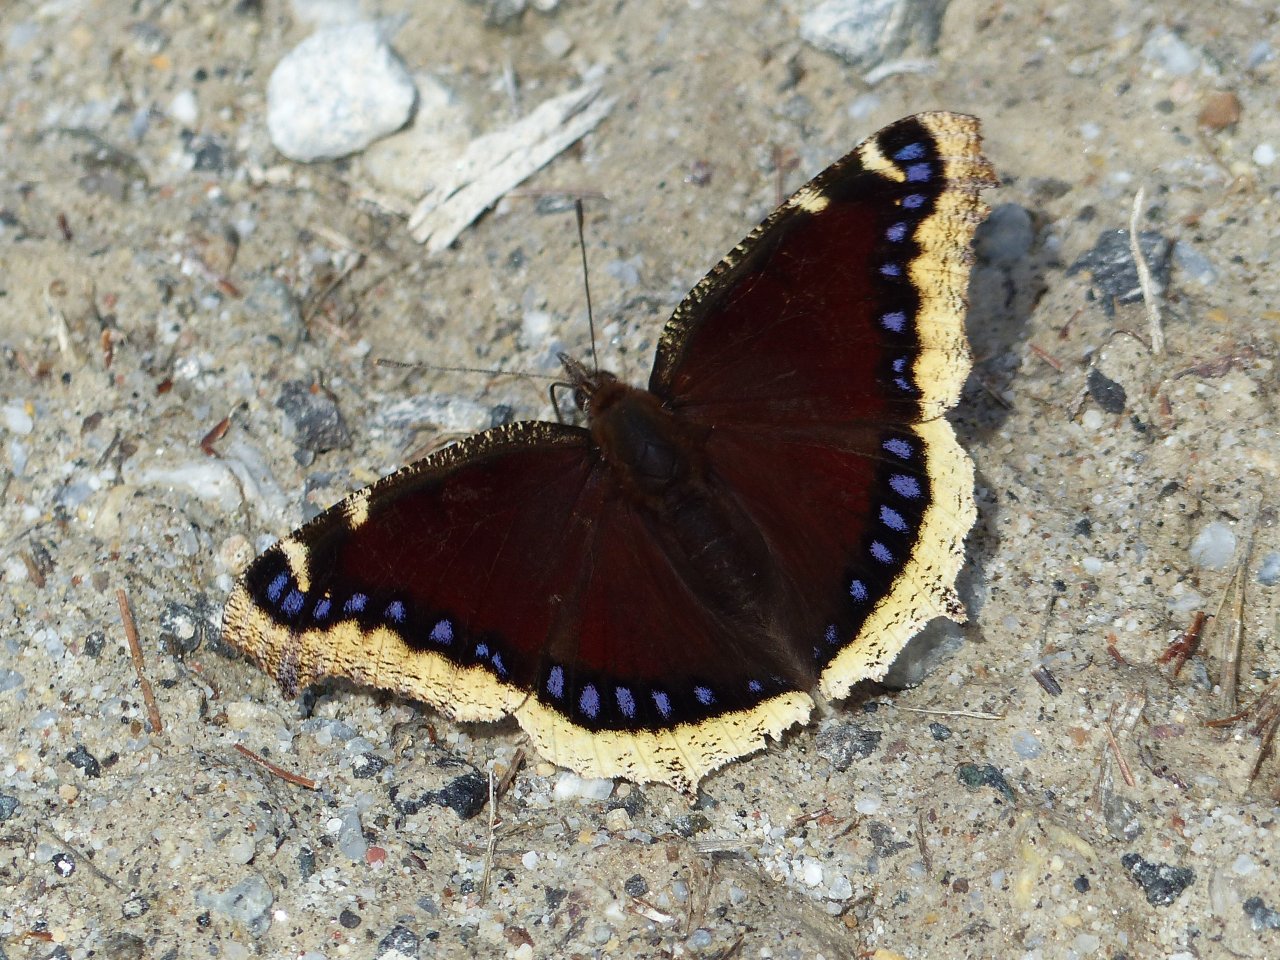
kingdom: Animalia
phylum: Arthropoda
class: Insecta
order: Lepidoptera
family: Nymphalidae
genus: Nymphalis
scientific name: Nymphalis antiopa
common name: Mourning Cloak
